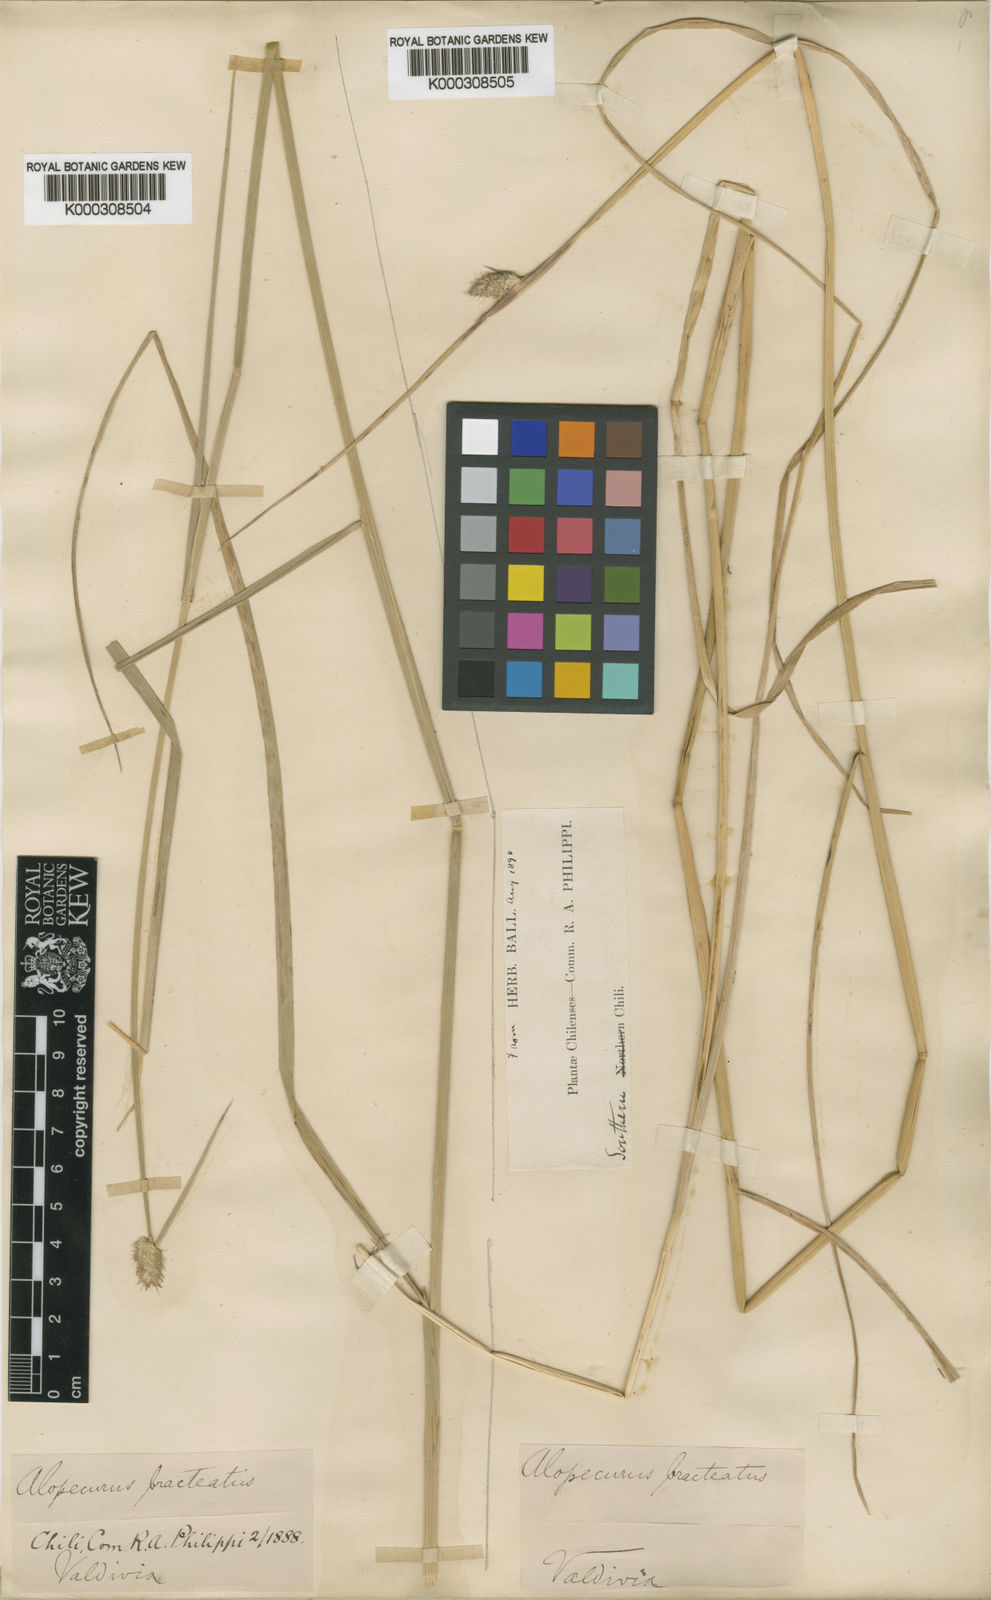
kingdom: Plantae
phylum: Tracheophyta
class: Liliopsida
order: Poales
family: Poaceae
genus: Alopecurus
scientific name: Alopecurus magellanicus
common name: Alpine foxtail
